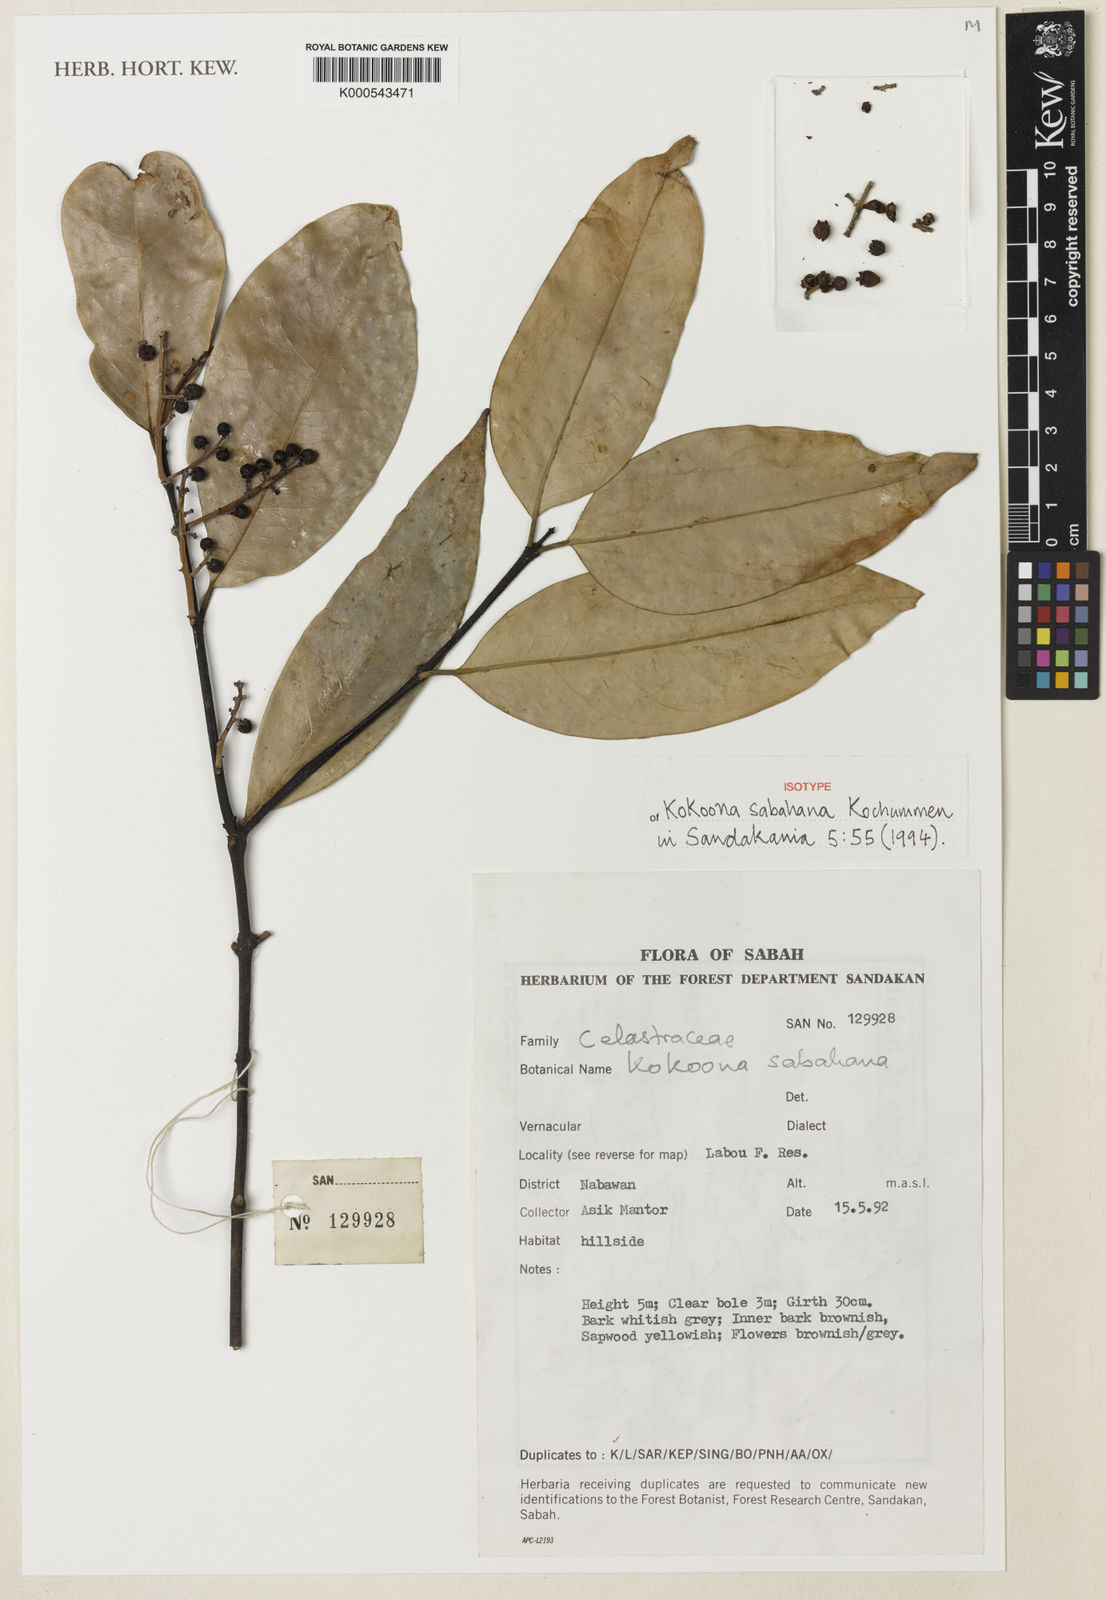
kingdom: Plantae
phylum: Tracheophyta
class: Magnoliopsida
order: Celastrales
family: Celastraceae
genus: Kokoona
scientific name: Kokoona sabahana
